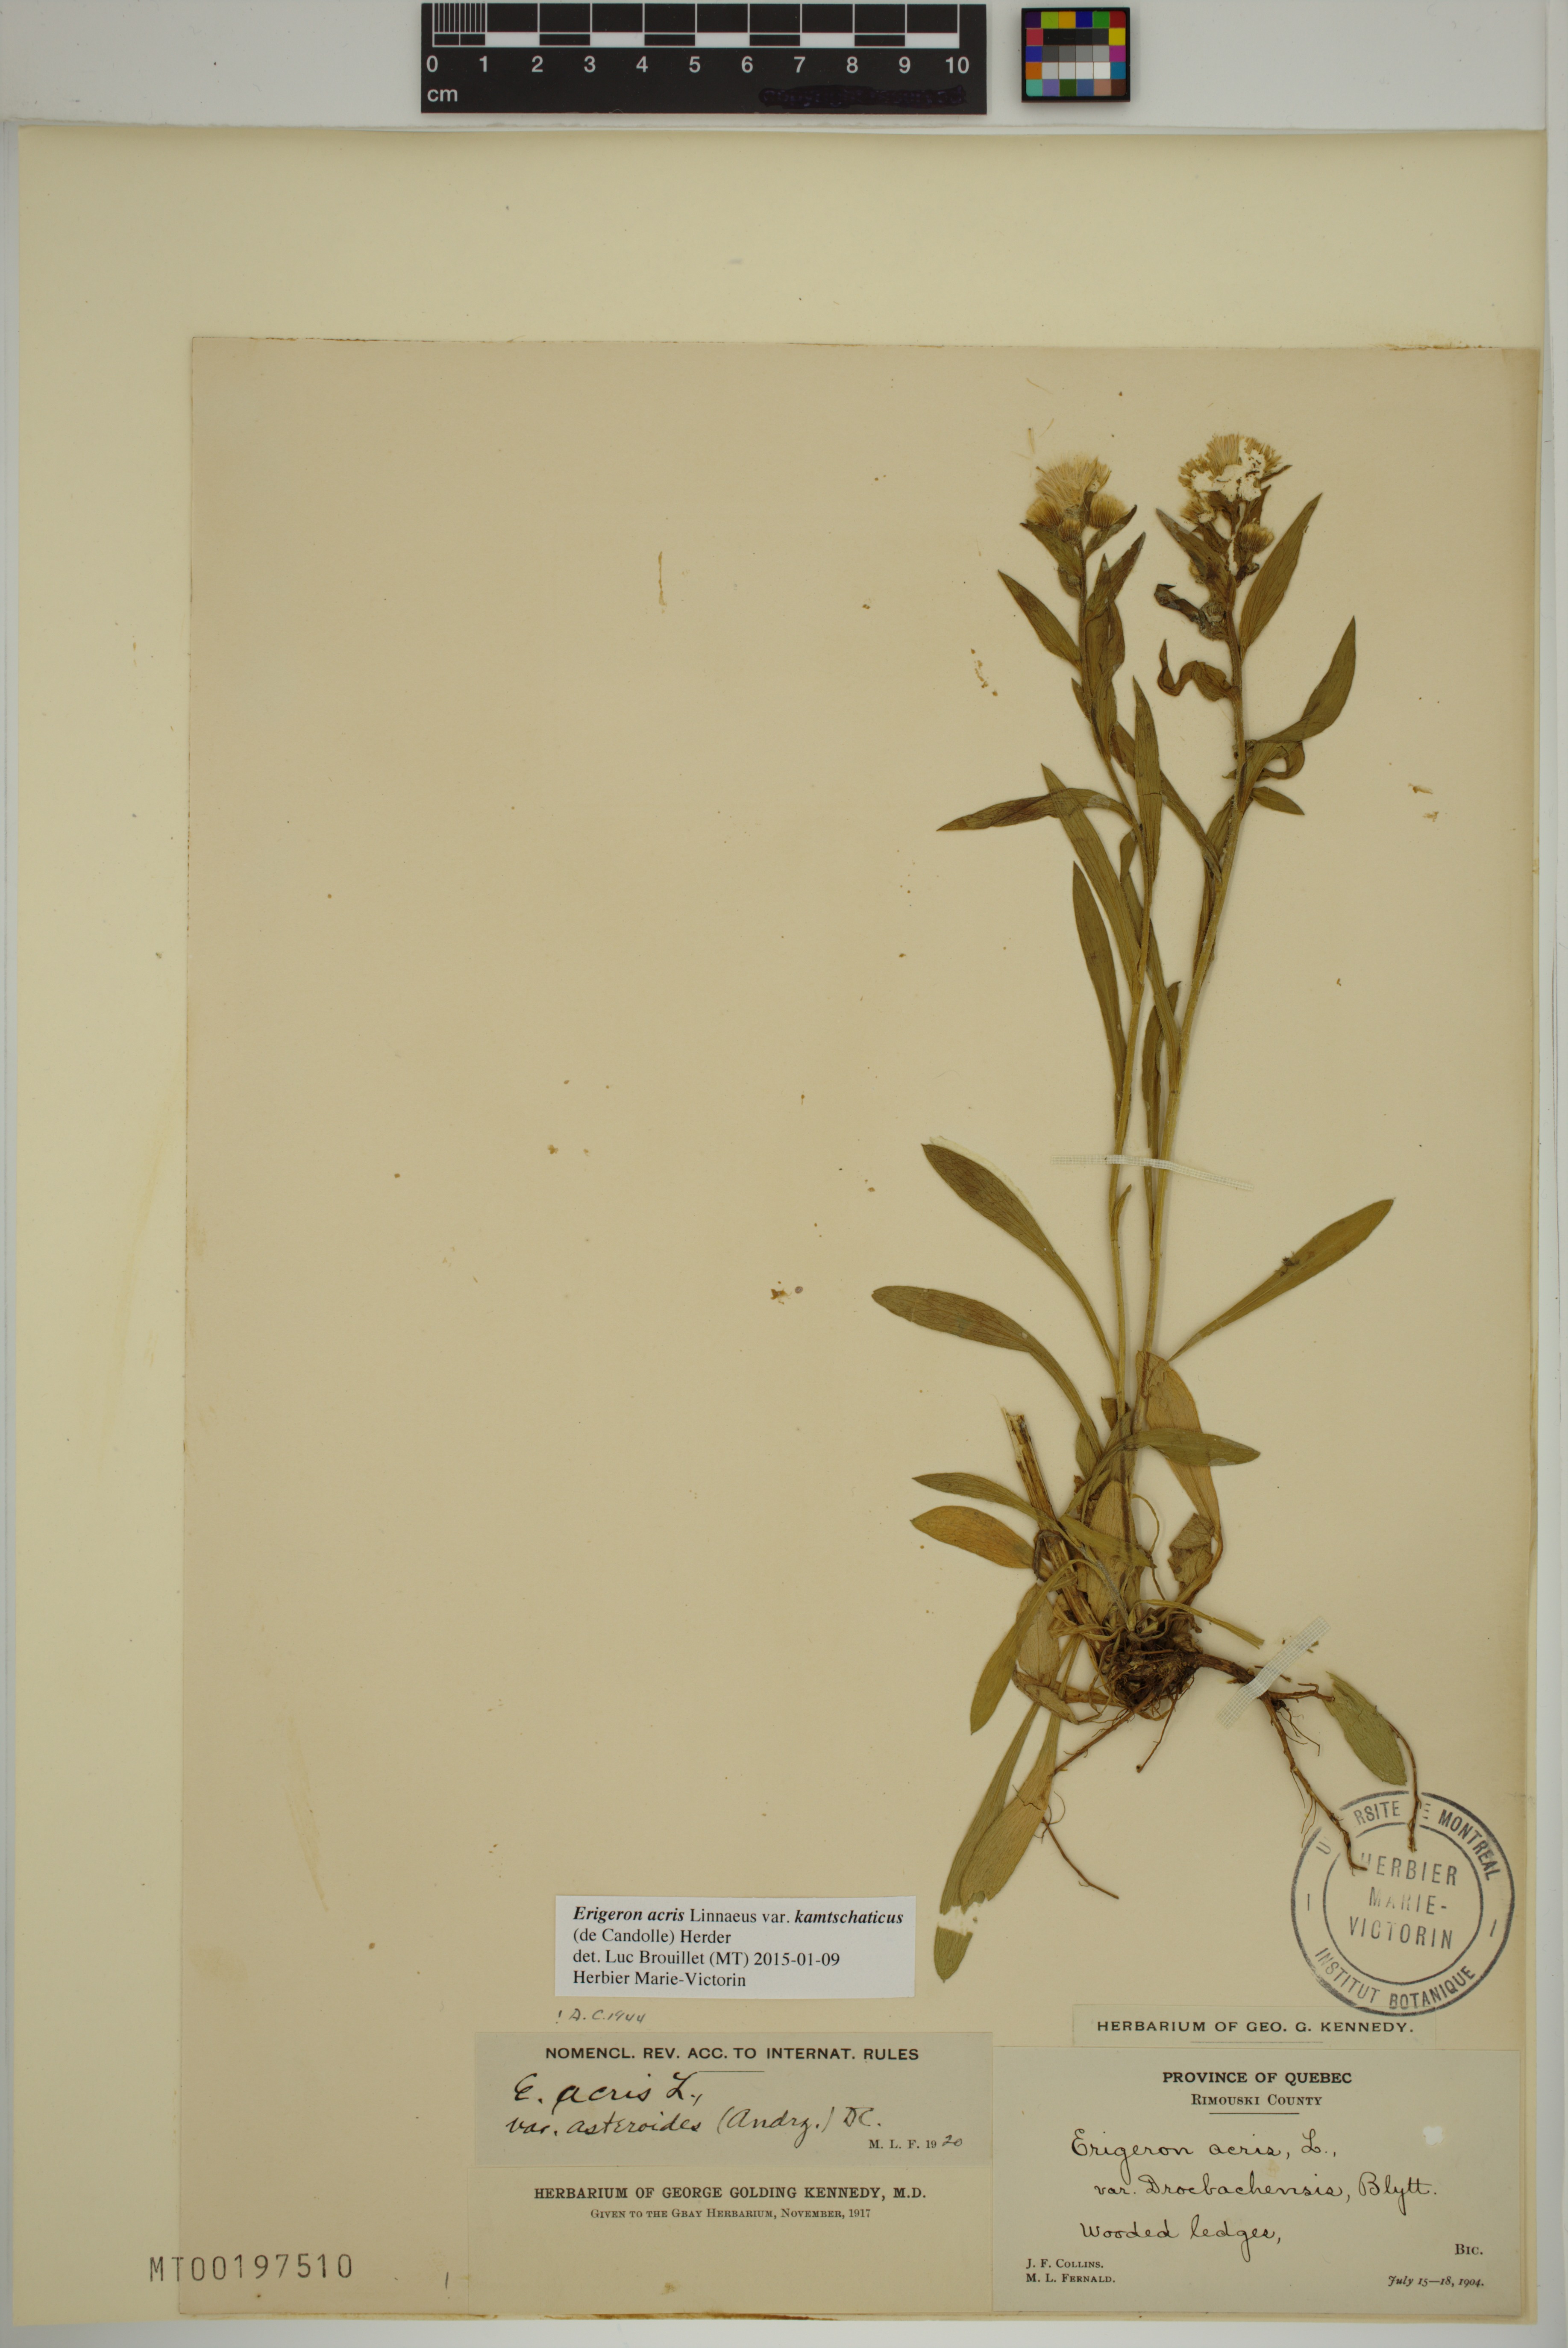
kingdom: Plantae
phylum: Tracheophyta
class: Magnoliopsida
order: Asterales
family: Asteraceae
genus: Erigeron
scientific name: Erigeron kamtschaticus
